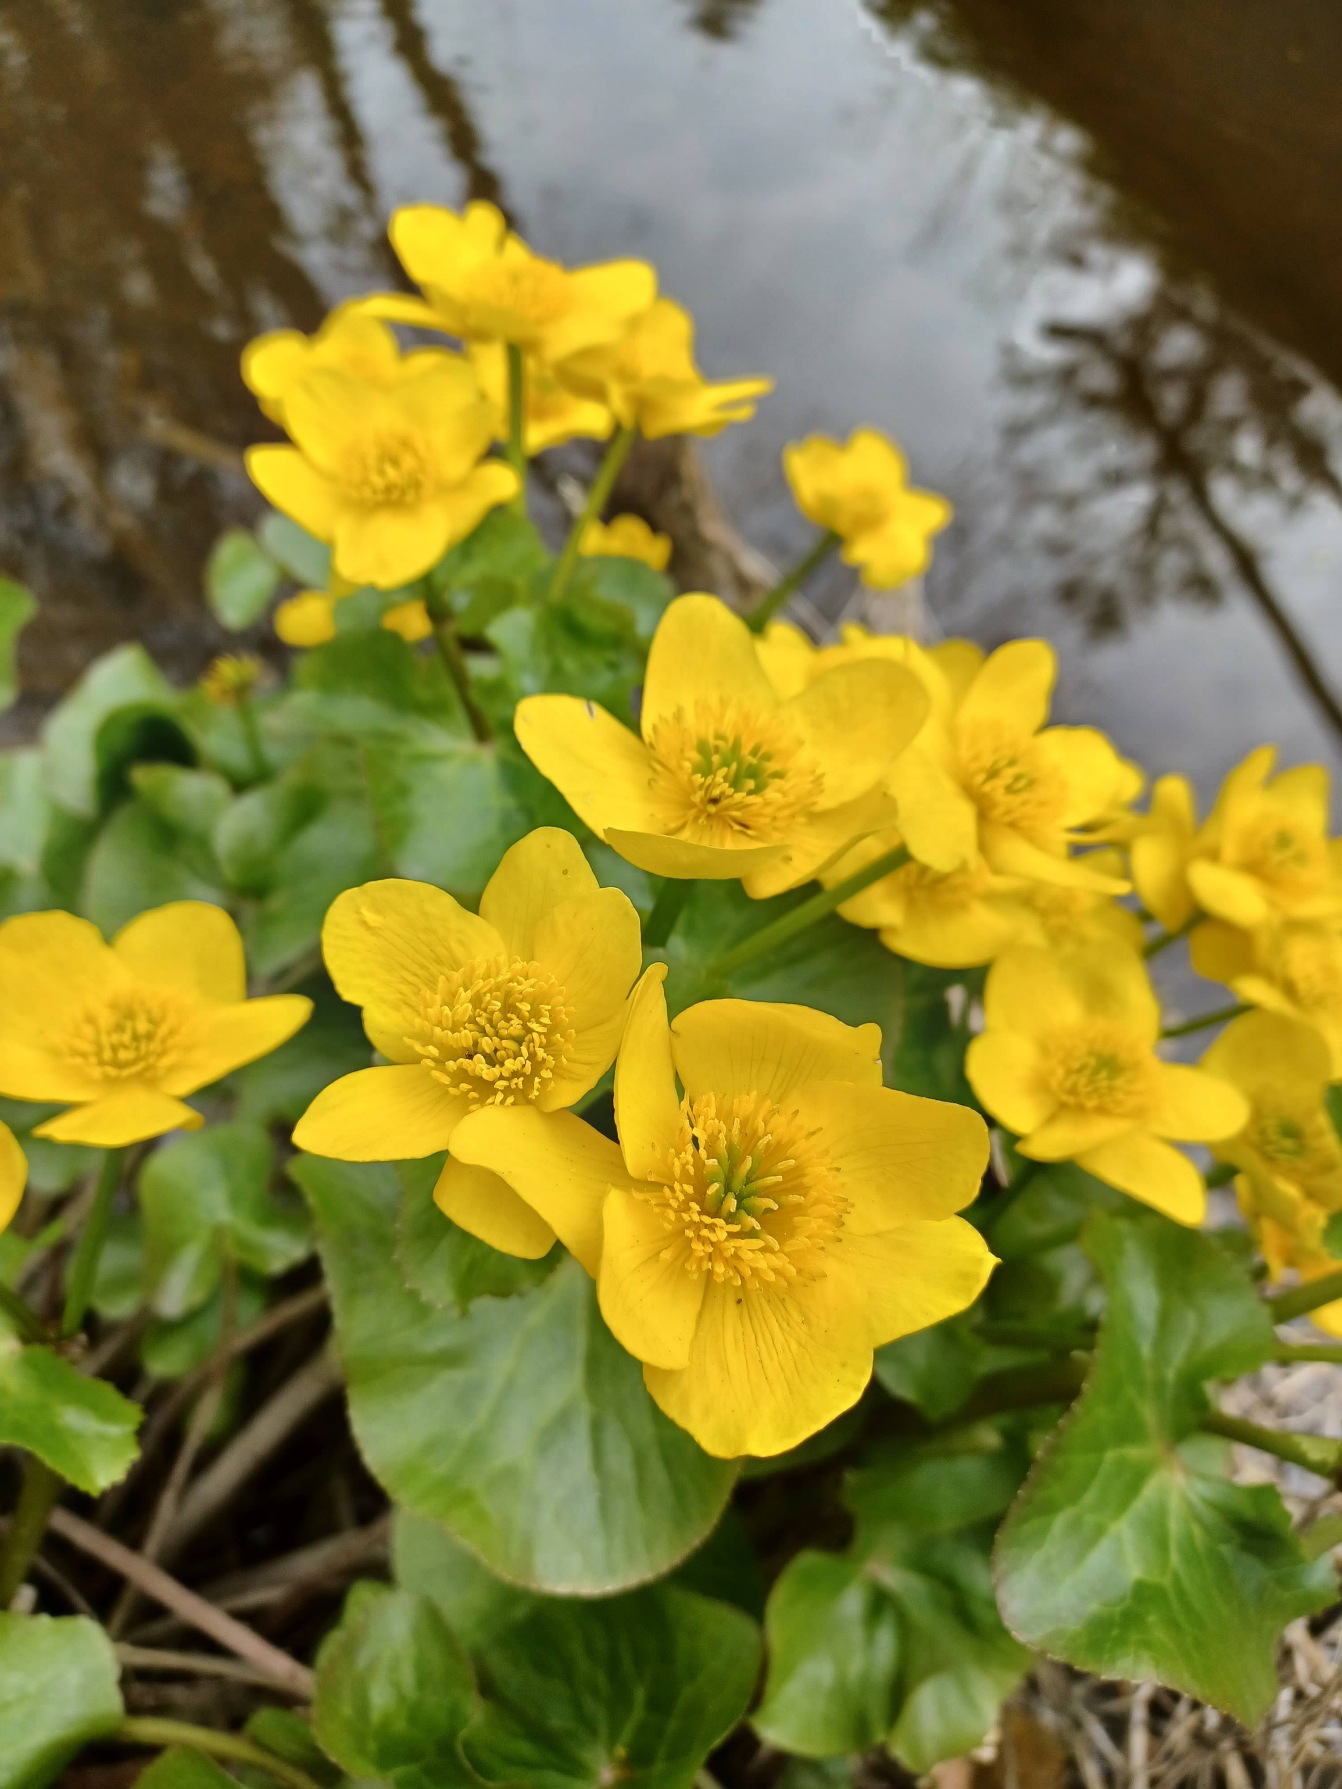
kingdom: Plantae
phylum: Tracheophyta
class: Magnoliopsida
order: Ranunculales
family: Ranunculaceae
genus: Caltha
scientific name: Caltha palustris
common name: Eng-kabbeleje
